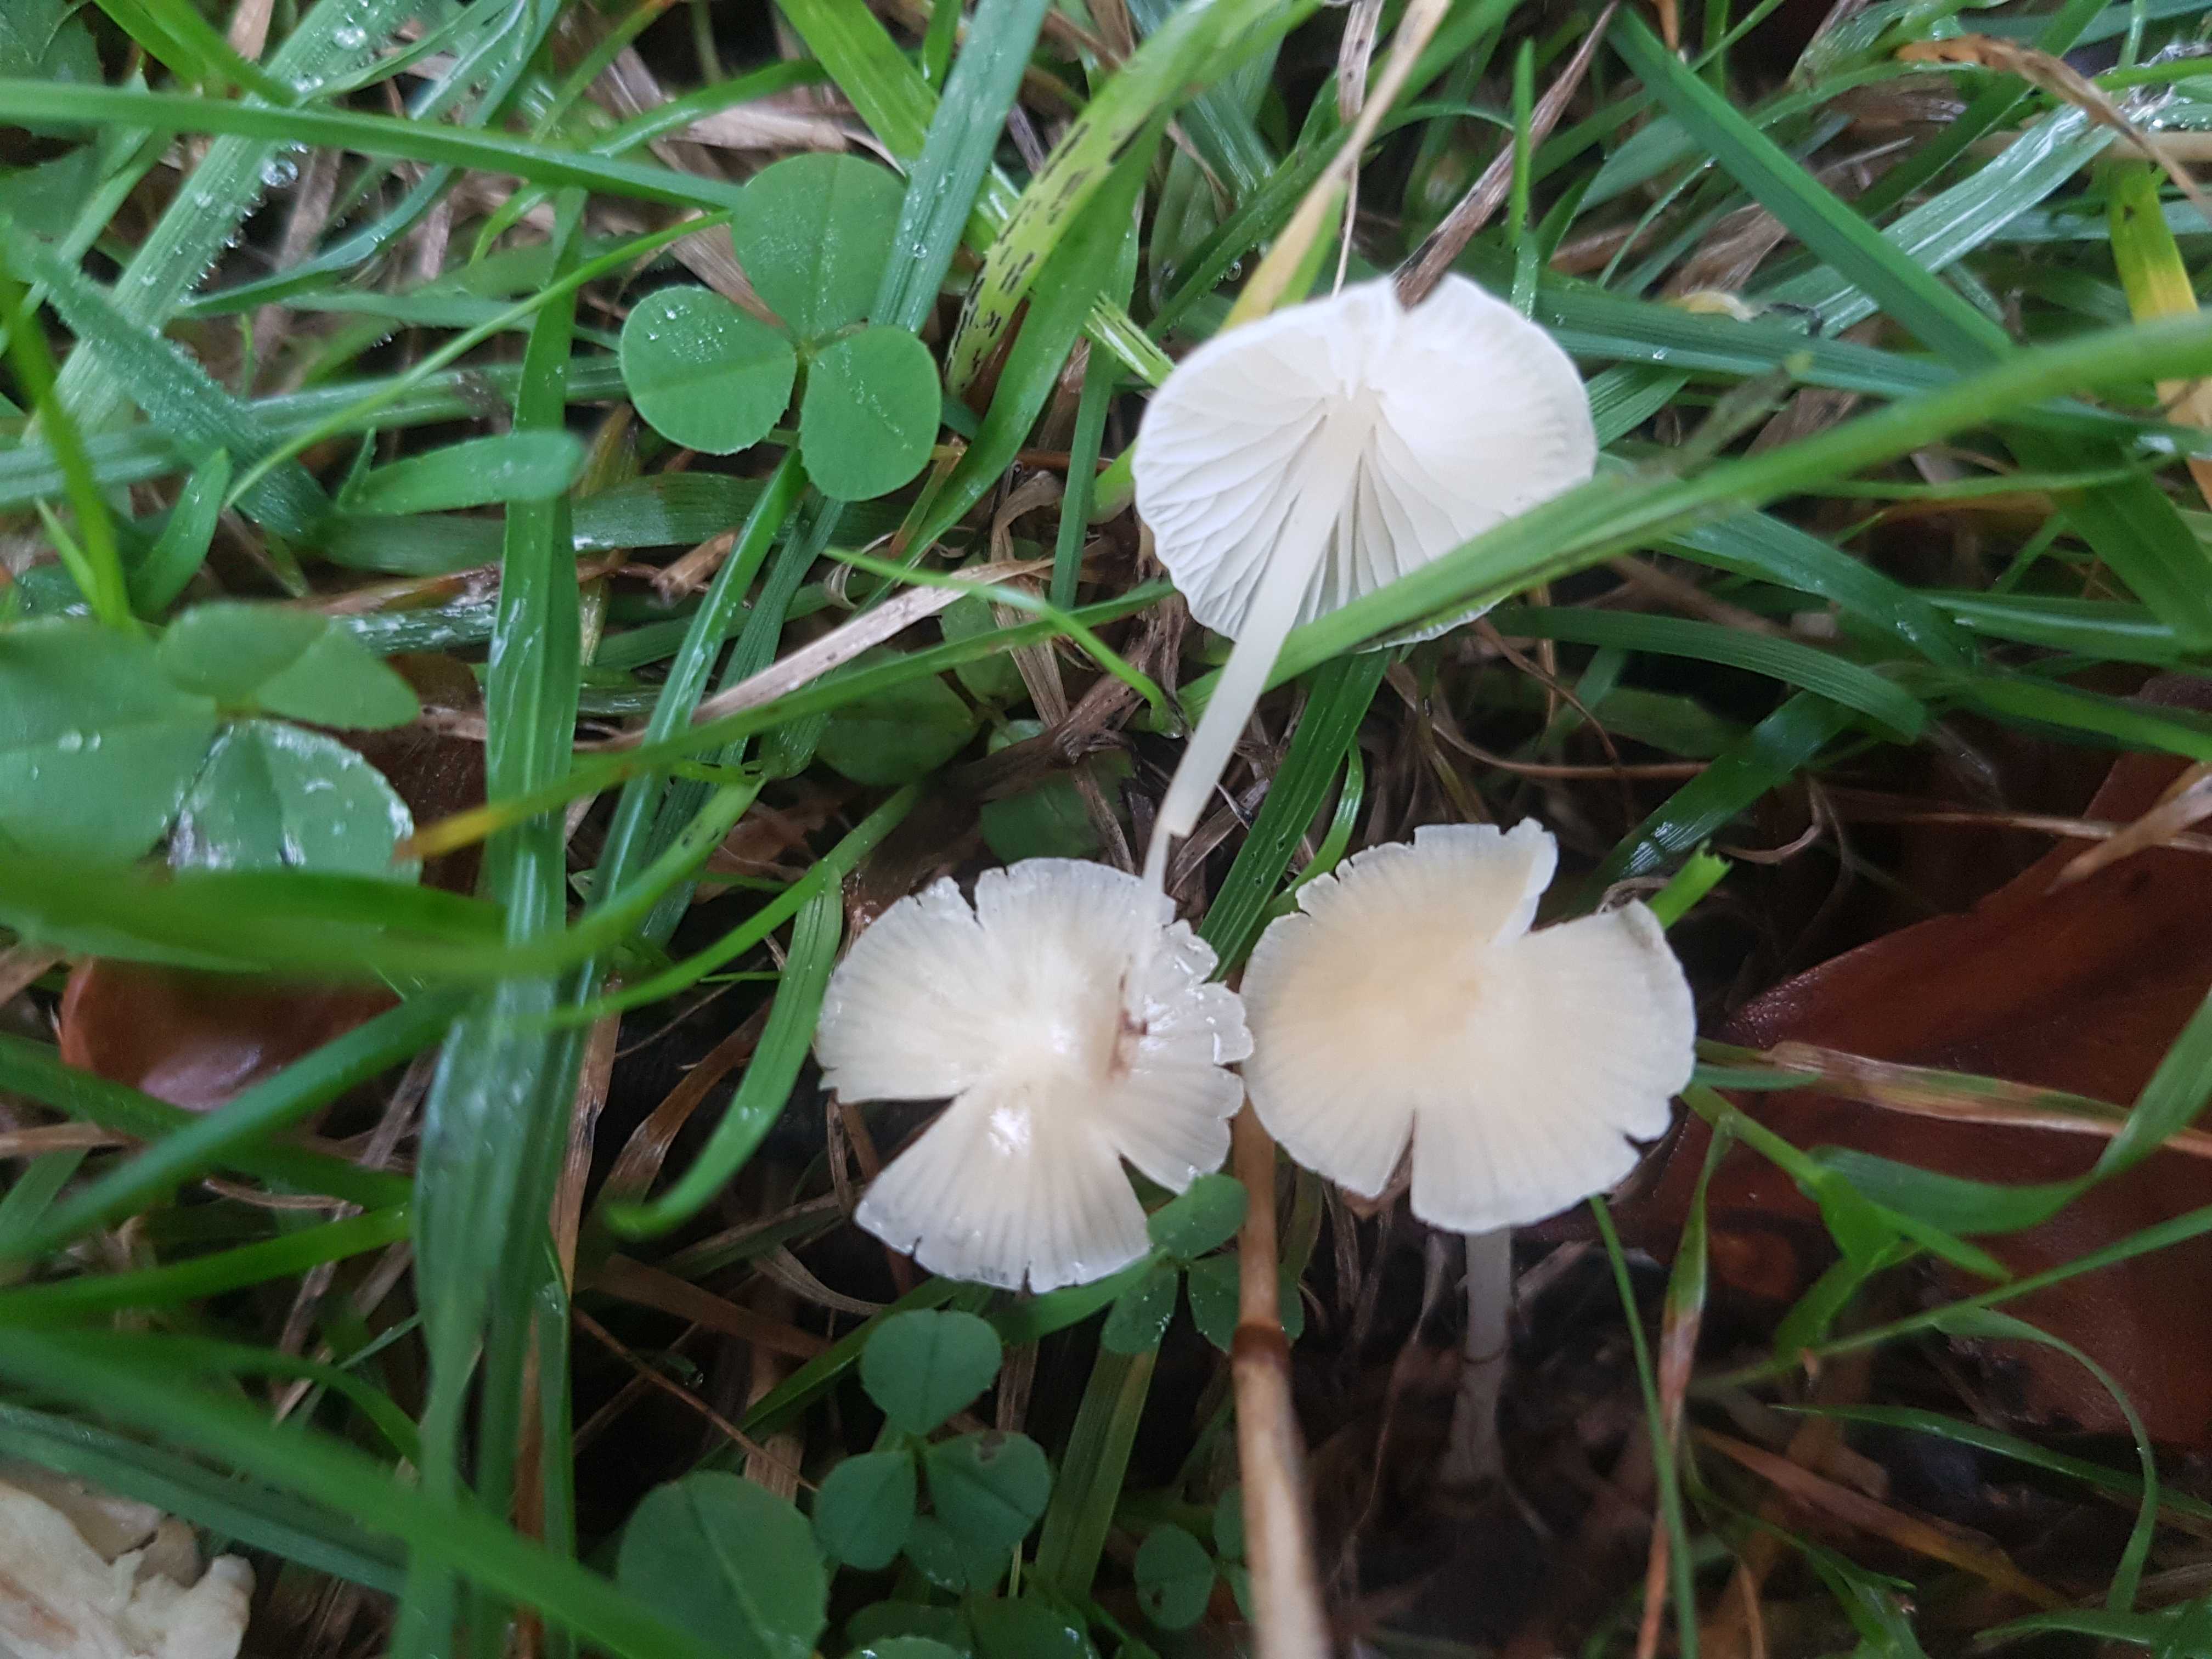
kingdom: Fungi
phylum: Basidiomycota
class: Agaricomycetes
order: Agaricales
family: Mycenaceae
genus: Atheniella
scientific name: Atheniella flavoalba
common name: gulhvid huesvamp
